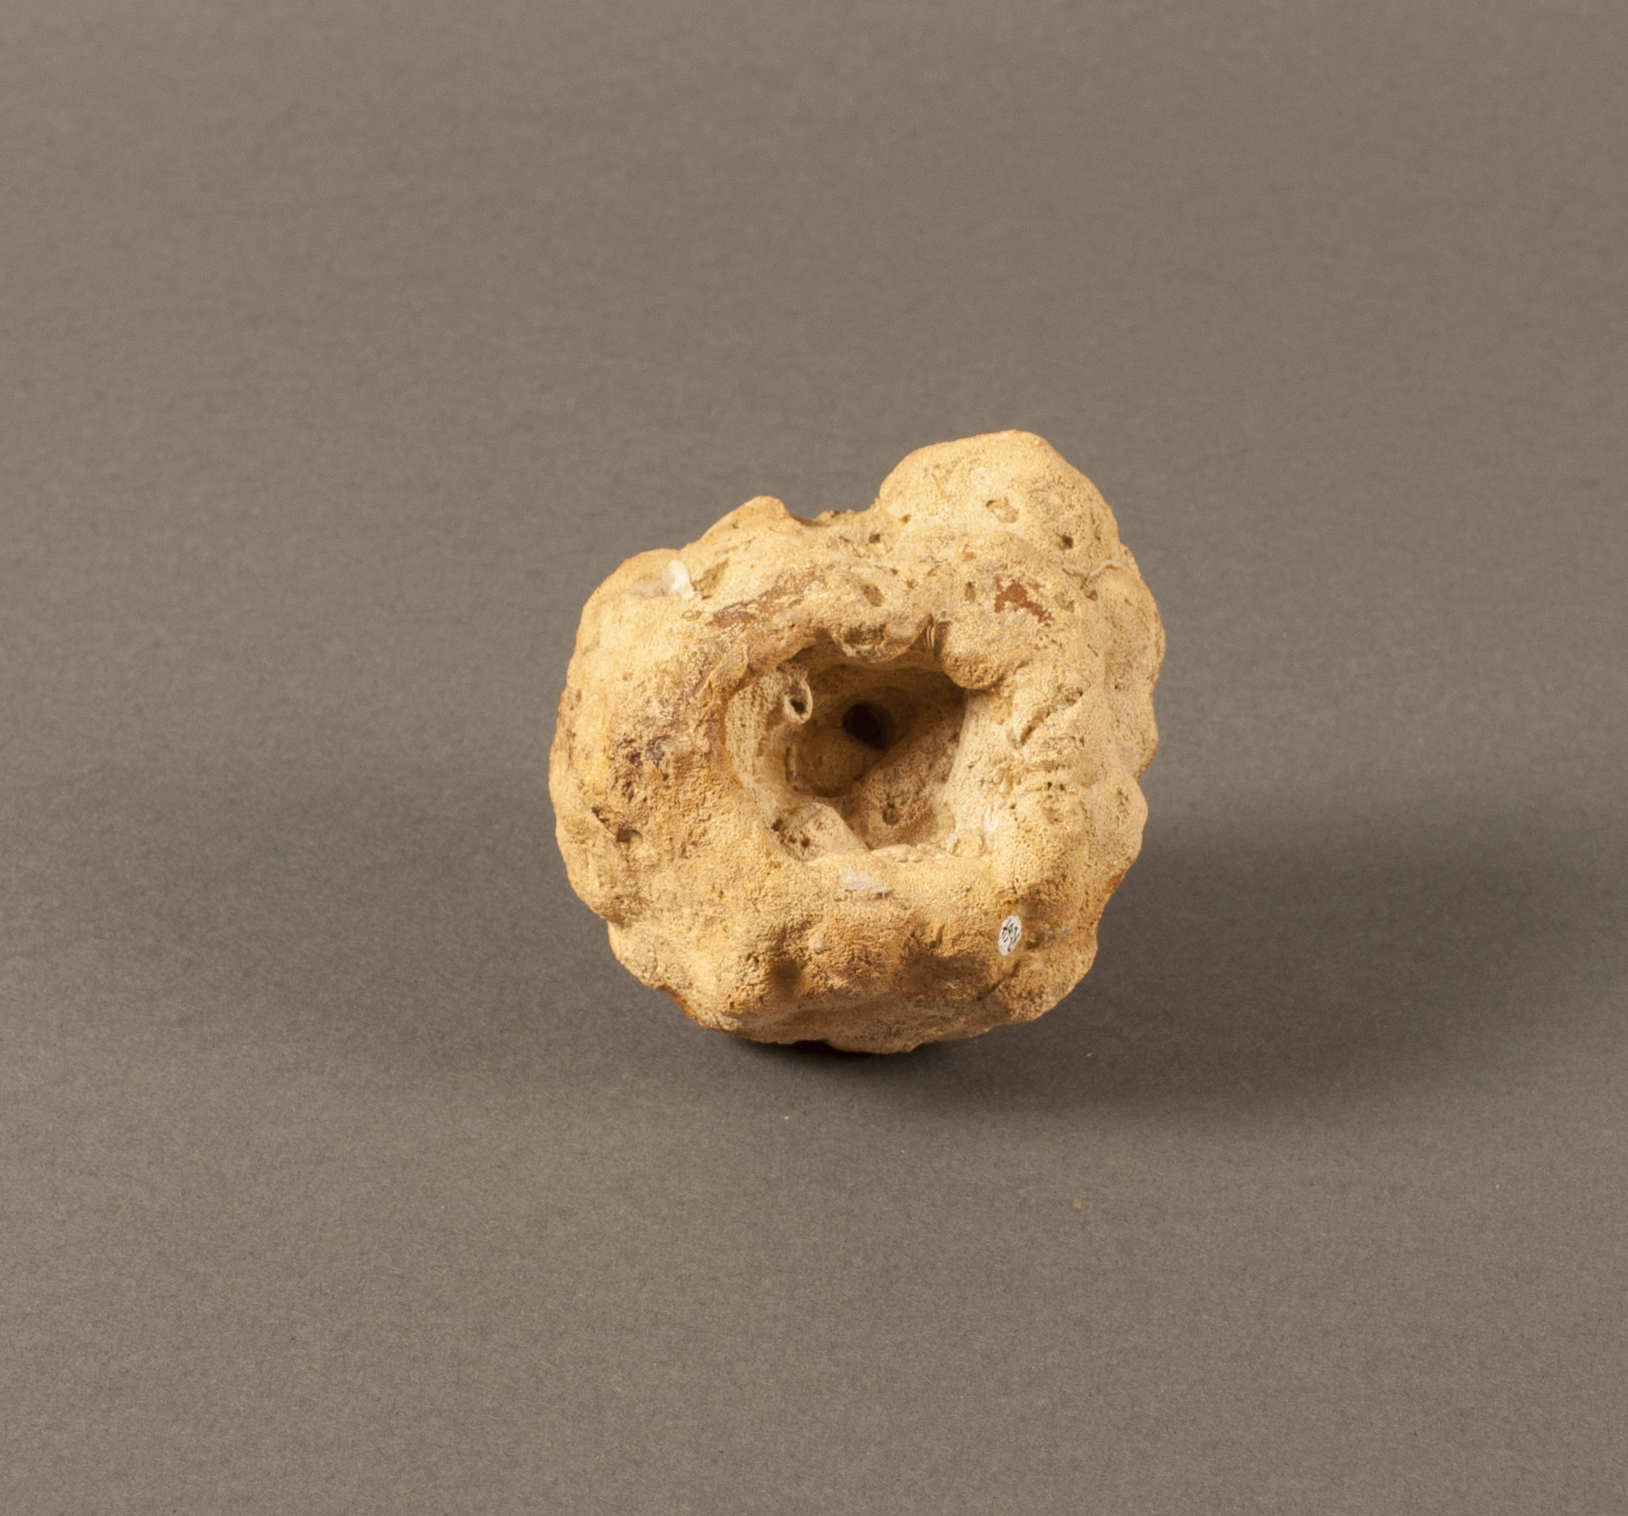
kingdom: Animalia
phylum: Porifera
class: Calcarea
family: Stellispongiidae
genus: Lymnorella
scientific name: Lymnorella
